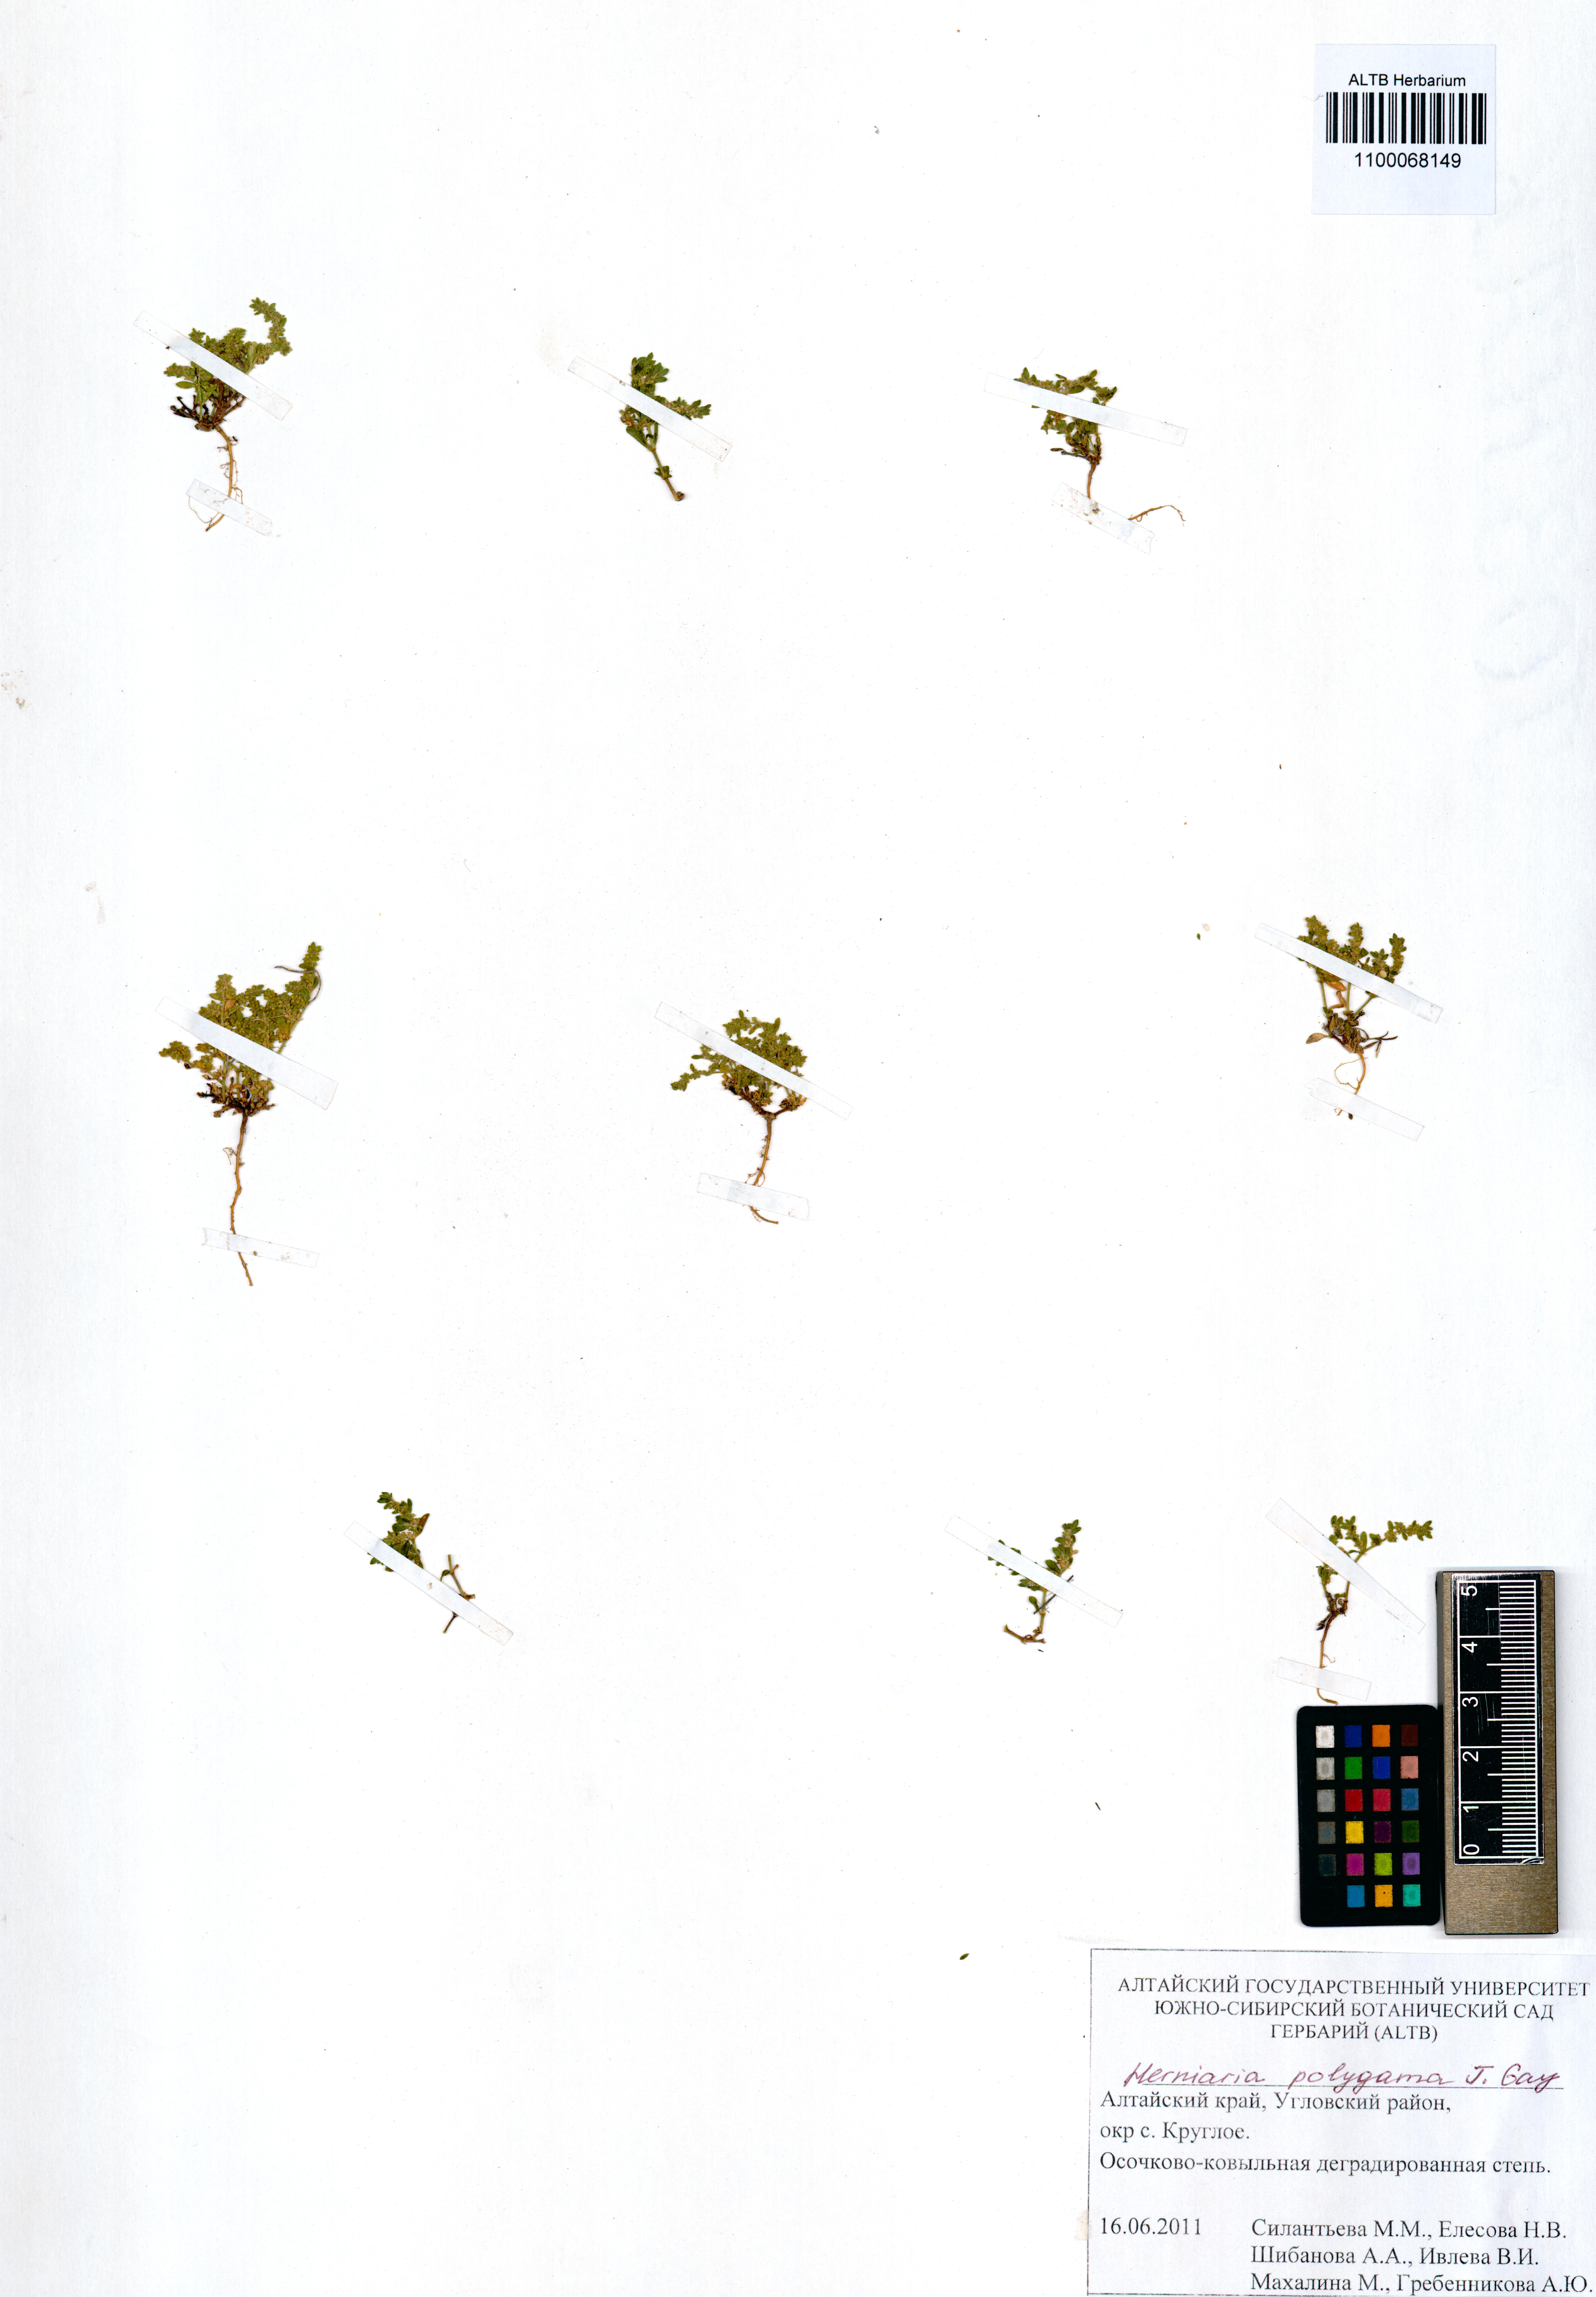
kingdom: Plantae
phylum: Tracheophyta
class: Magnoliopsida
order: Caryophyllales
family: Caryophyllaceae
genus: Herniaria
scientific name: Herniaria polygama
